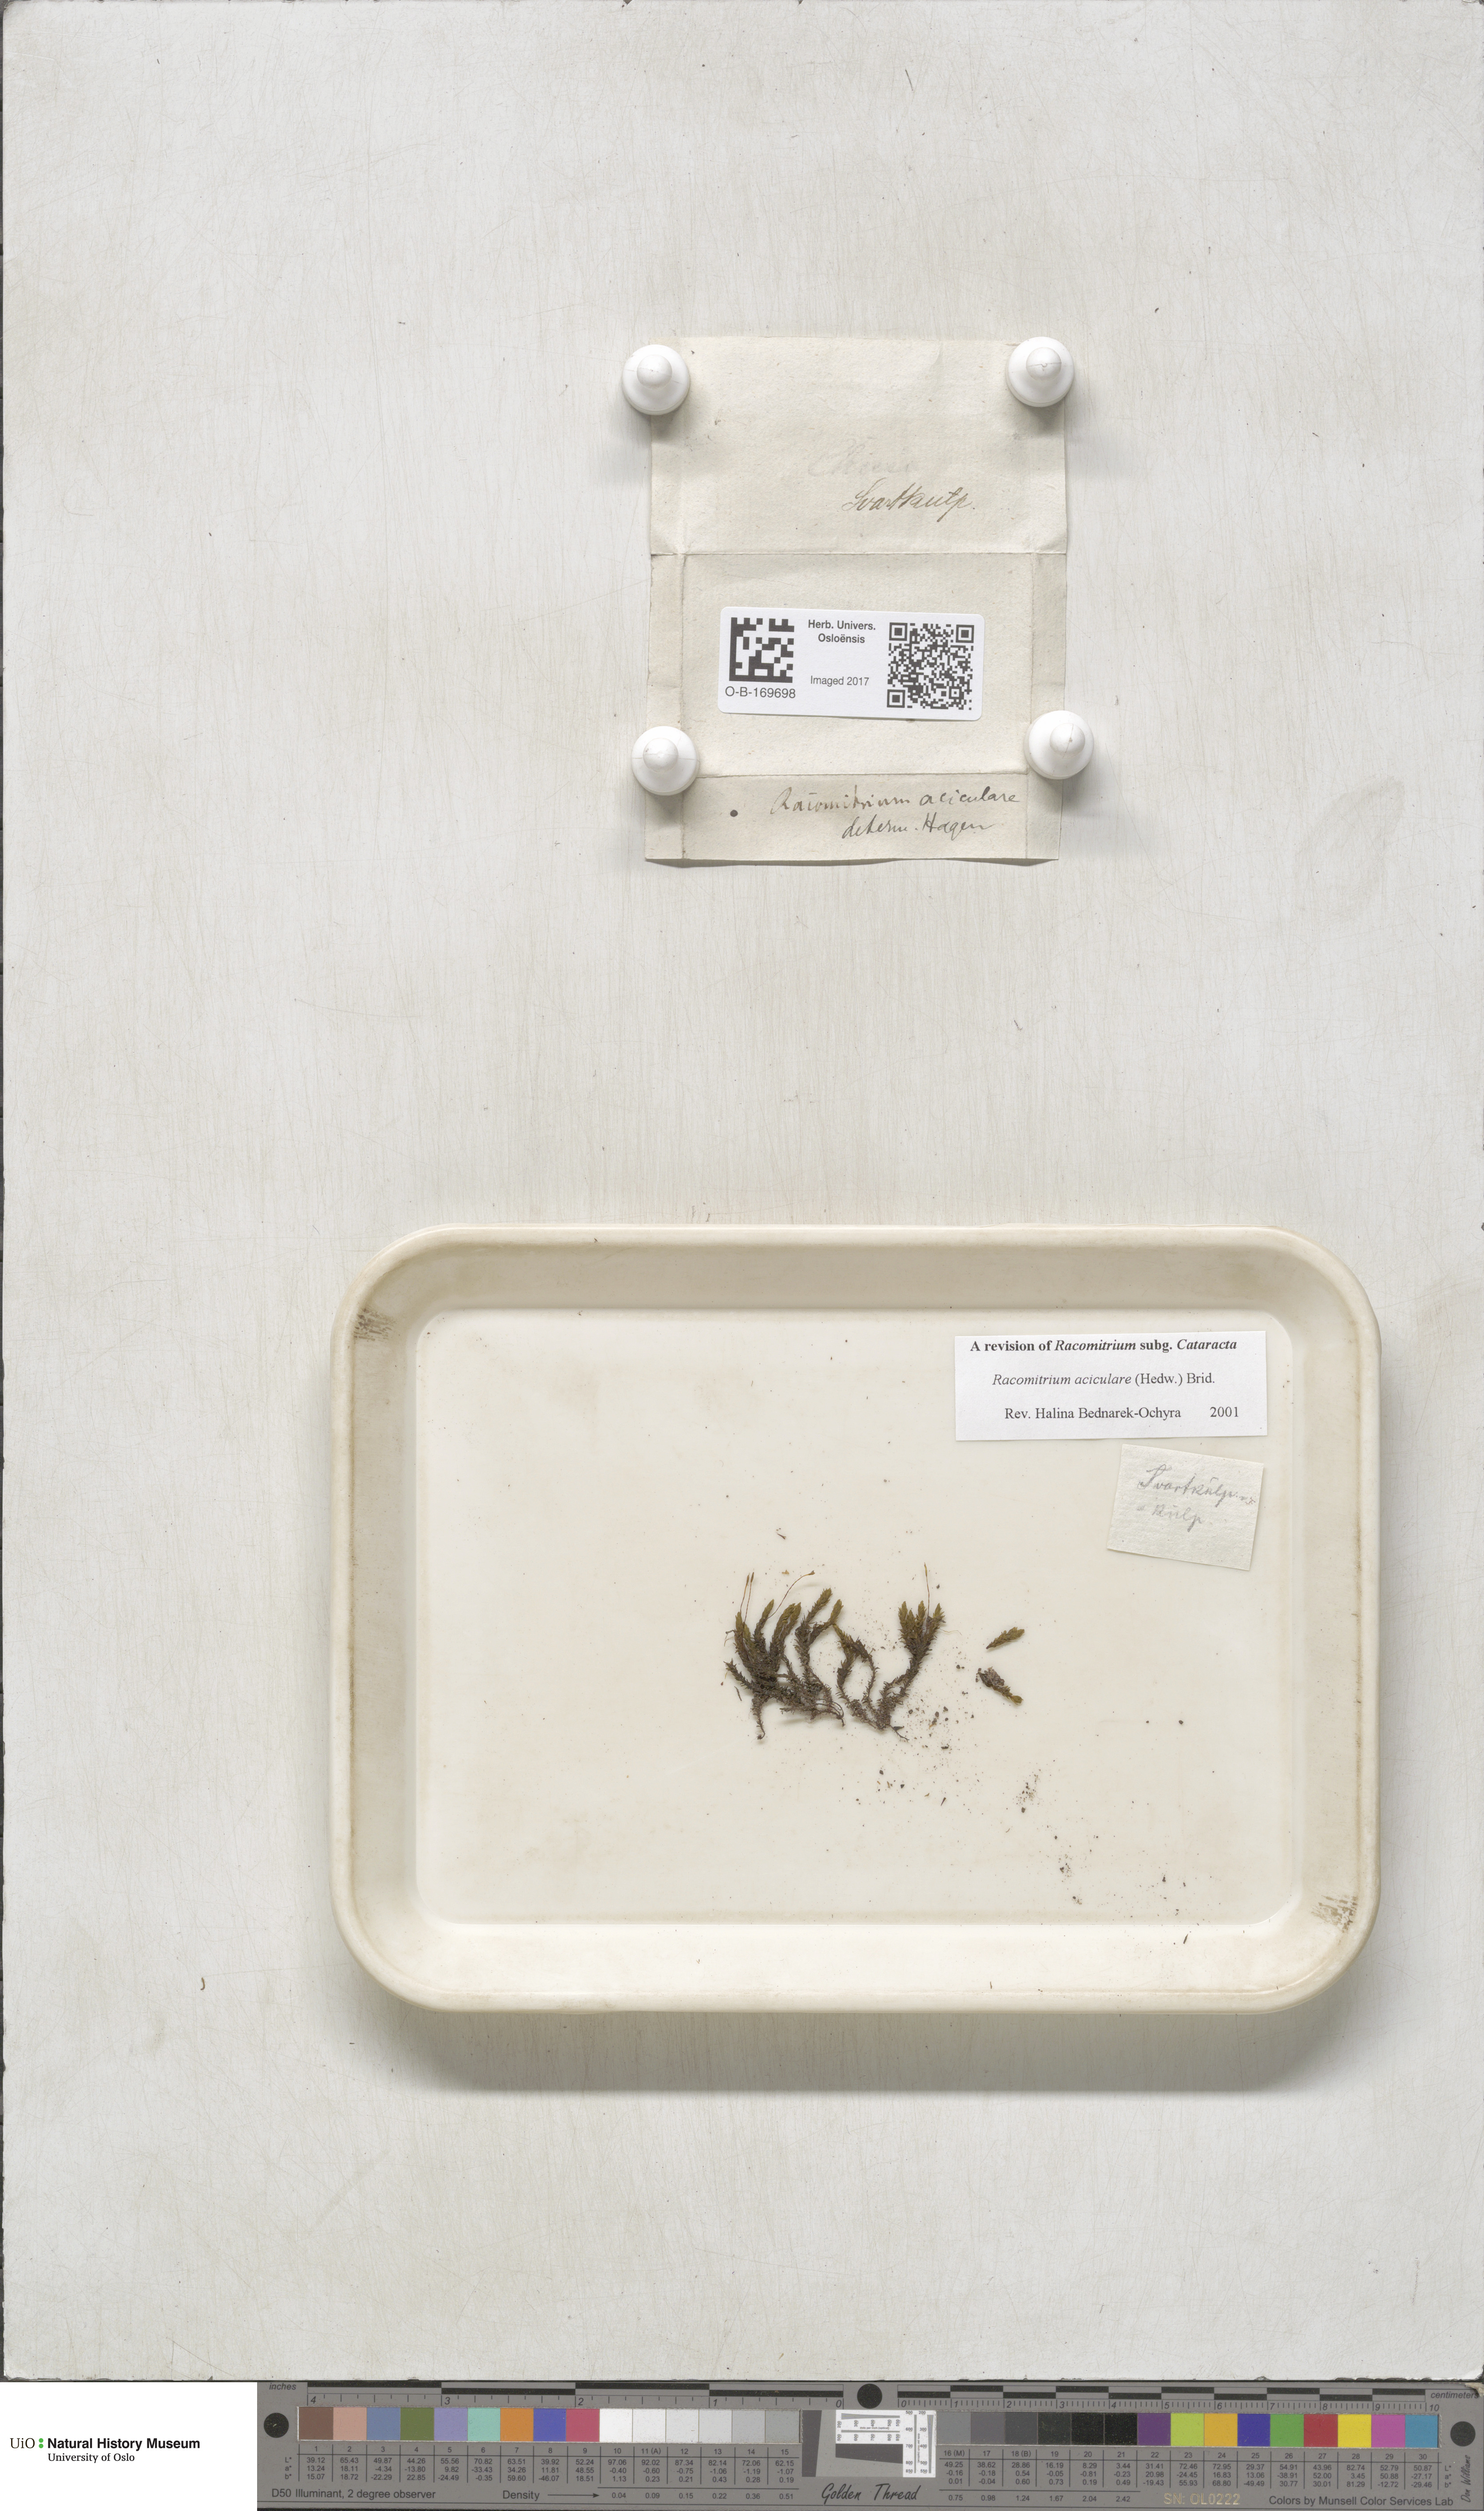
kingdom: Plantae
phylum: Bryophyta
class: Bryopsida
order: Grimmiales
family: Grimmiaceae
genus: Codriophorus
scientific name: Codriophorus acicularis
